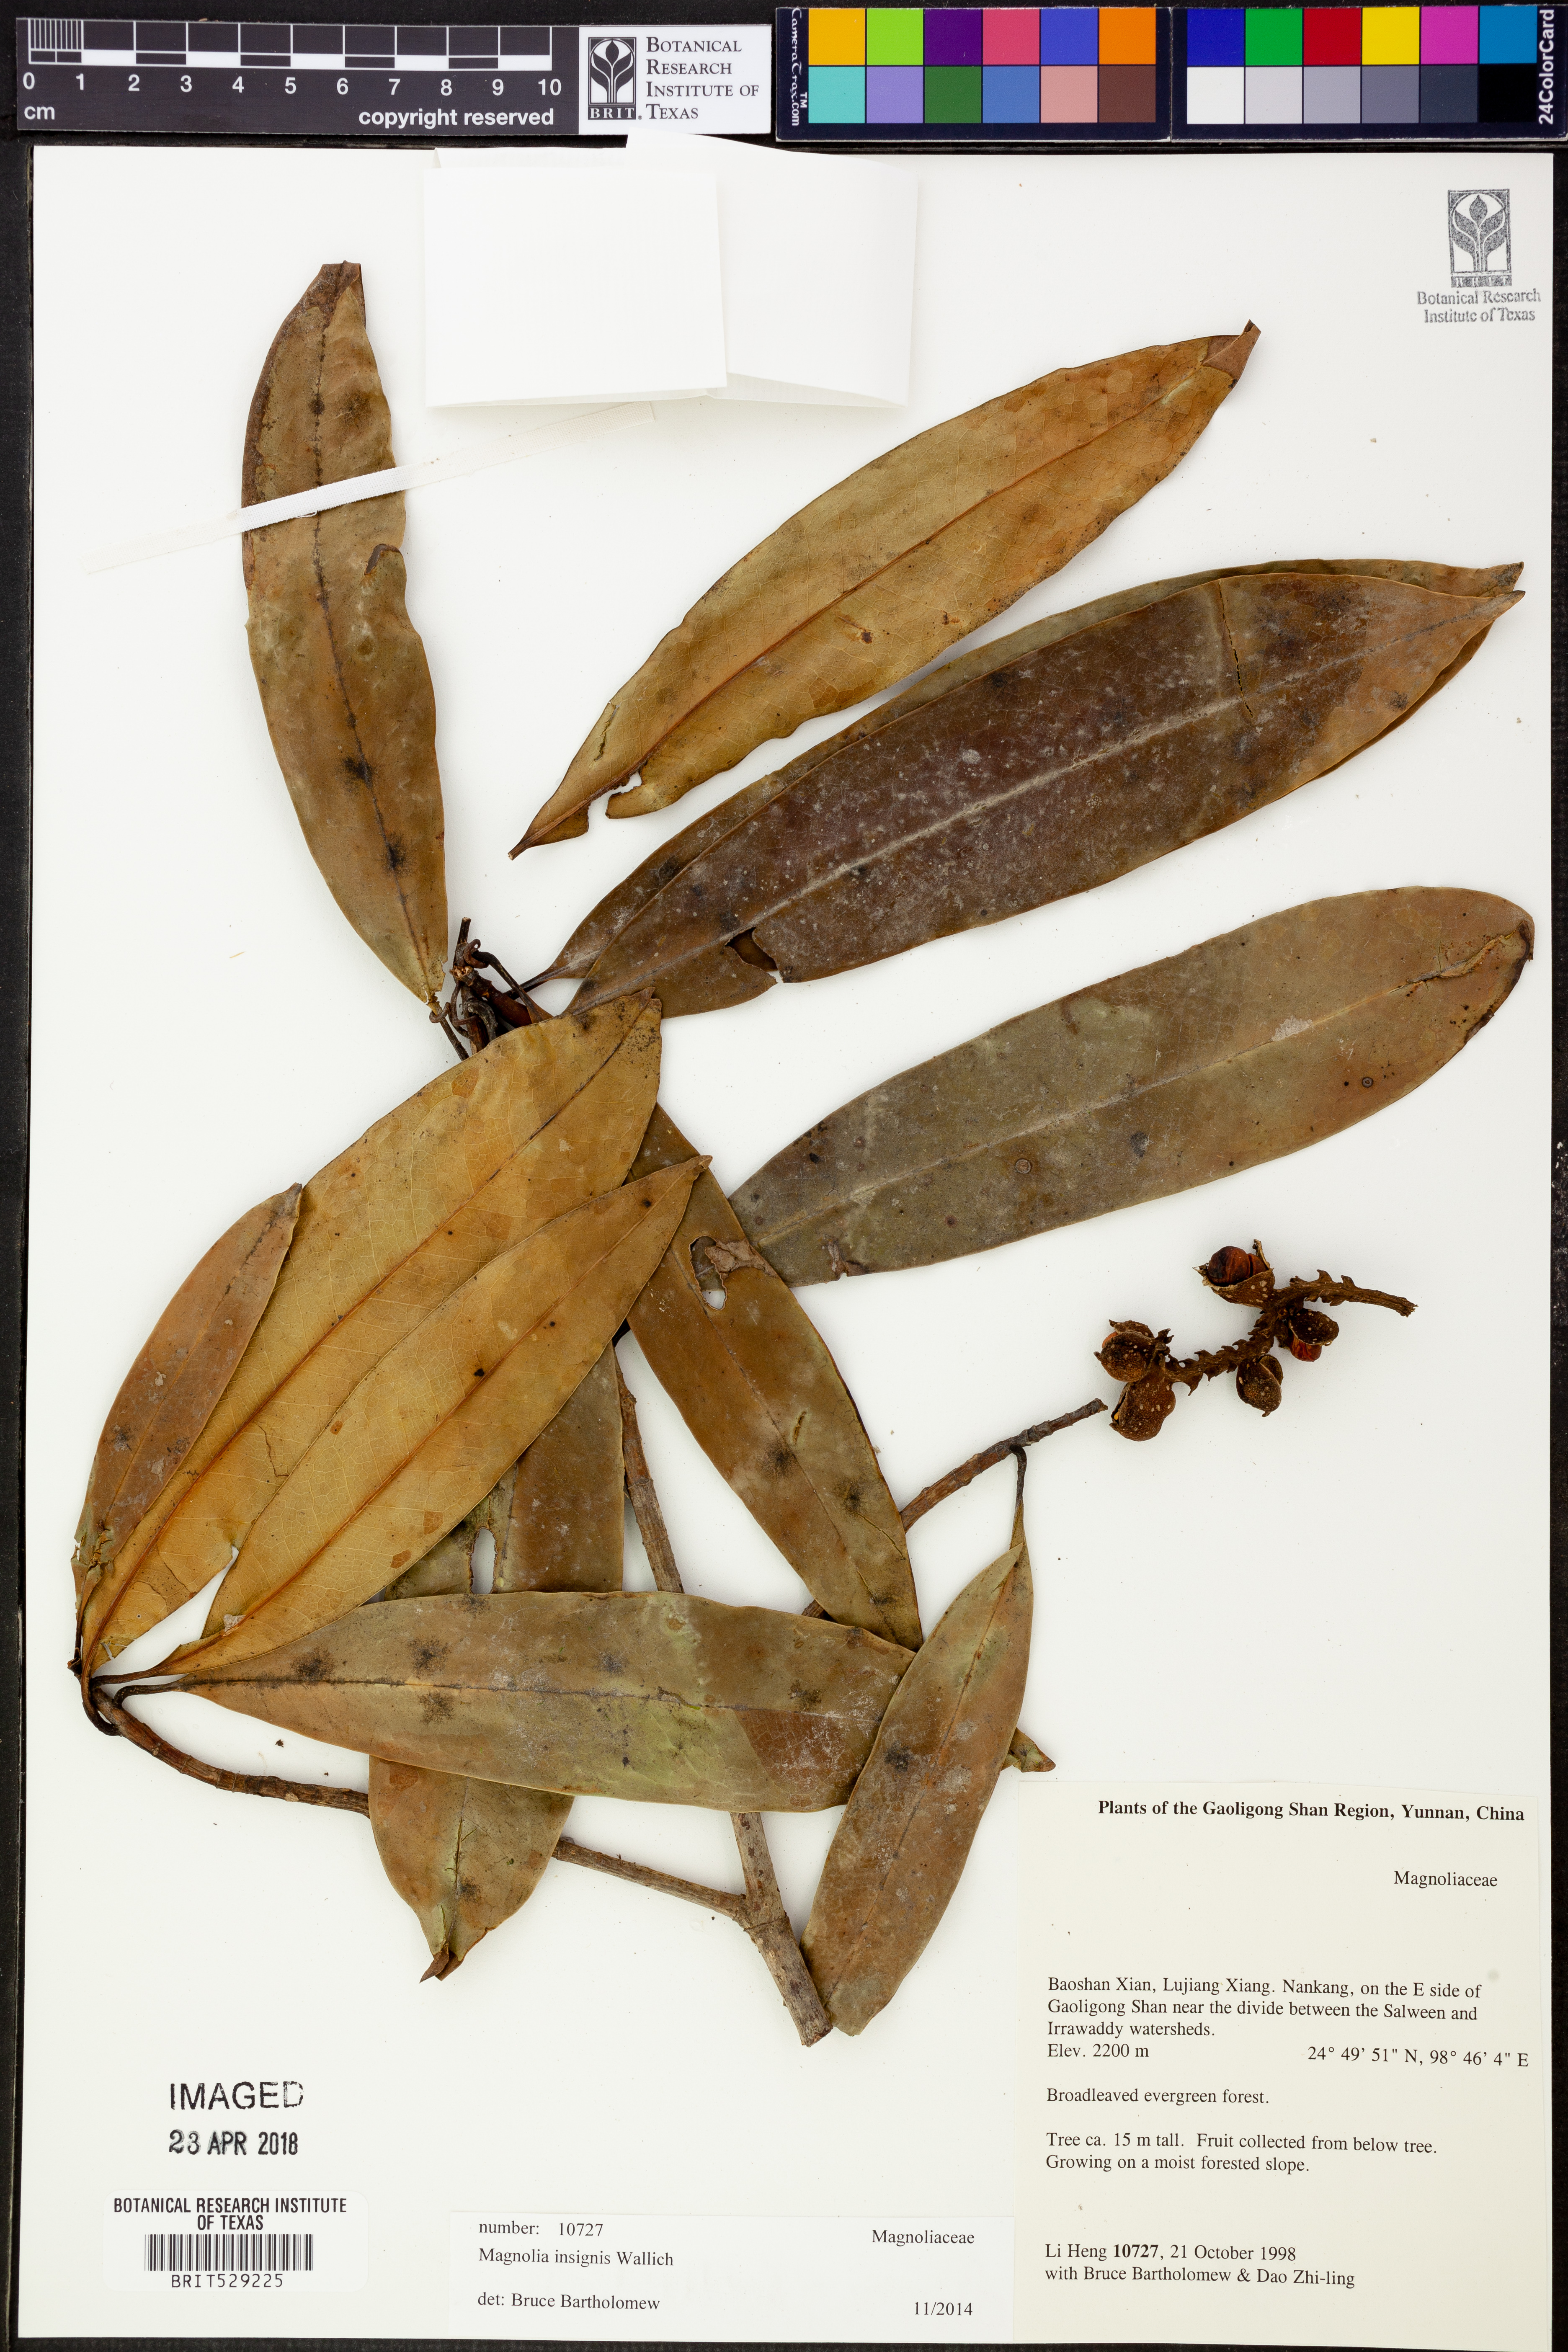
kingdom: Plantae
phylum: Tracheophyta
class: Magnoliopsida
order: Magnoliales
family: Magnoliaceae
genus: Magnolia
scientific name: Magnolia insignis
